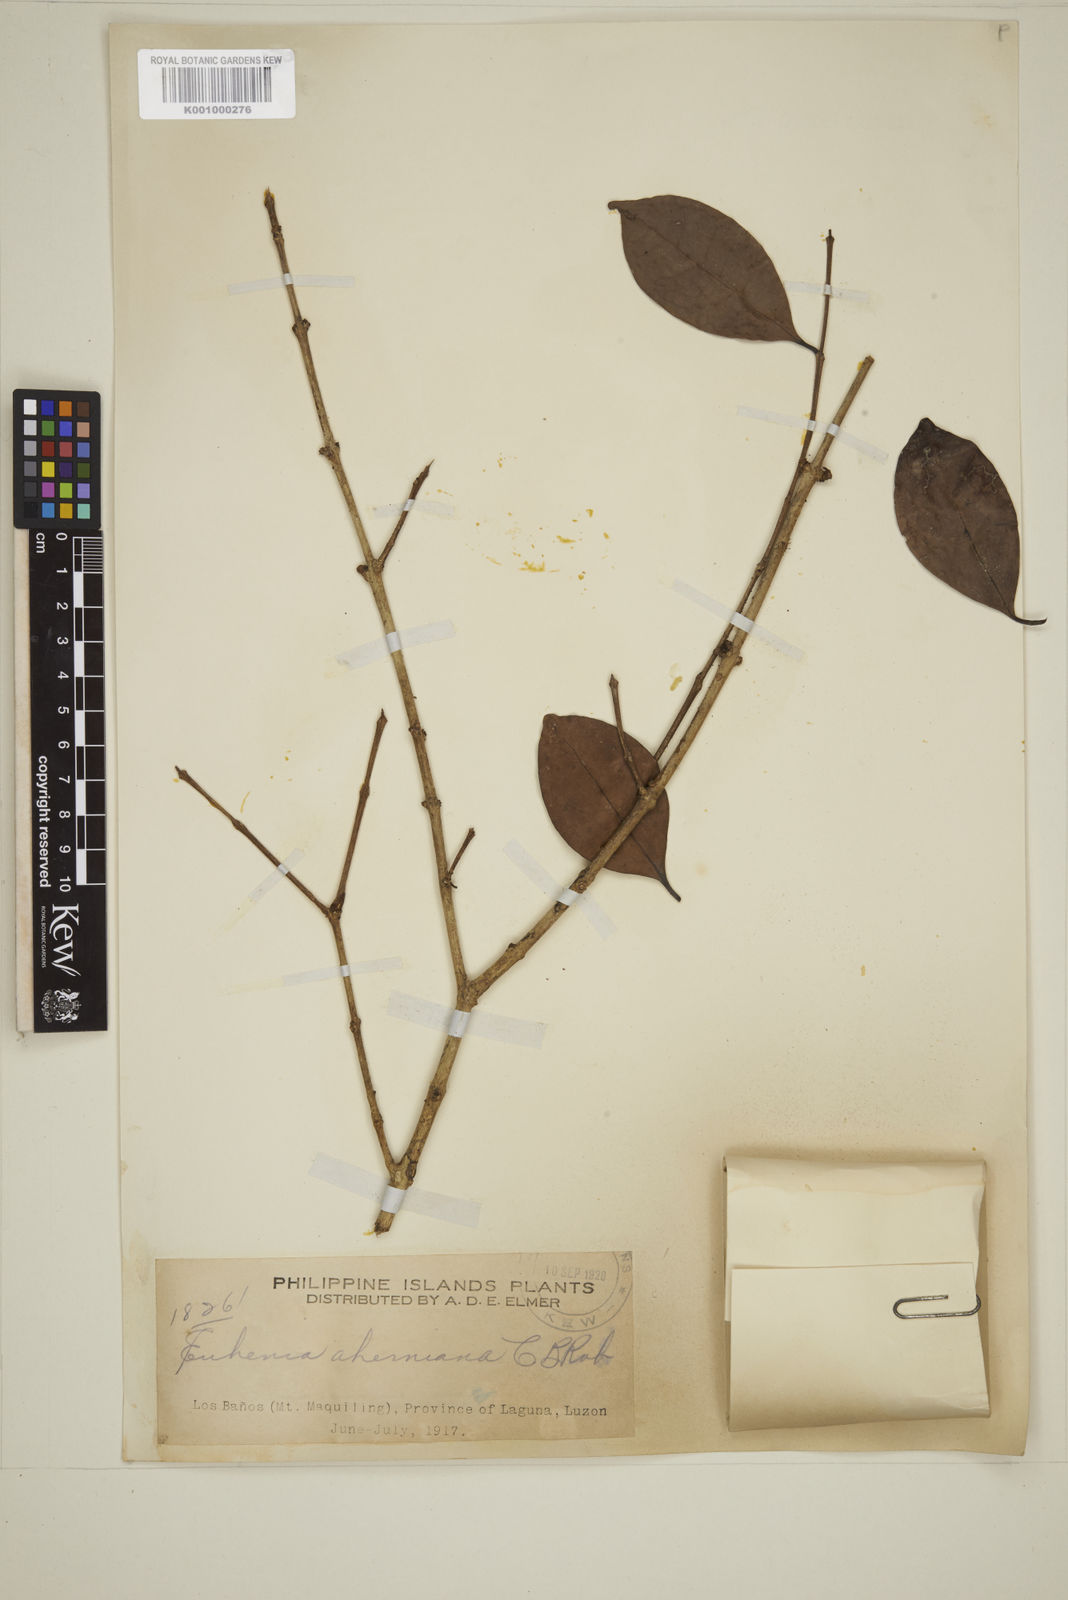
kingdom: Plantae
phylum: Tracheophyta
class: Magnoliopsida
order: Myrtales
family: Myrtaceae
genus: Eugenia
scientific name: Eugenia aherniana
